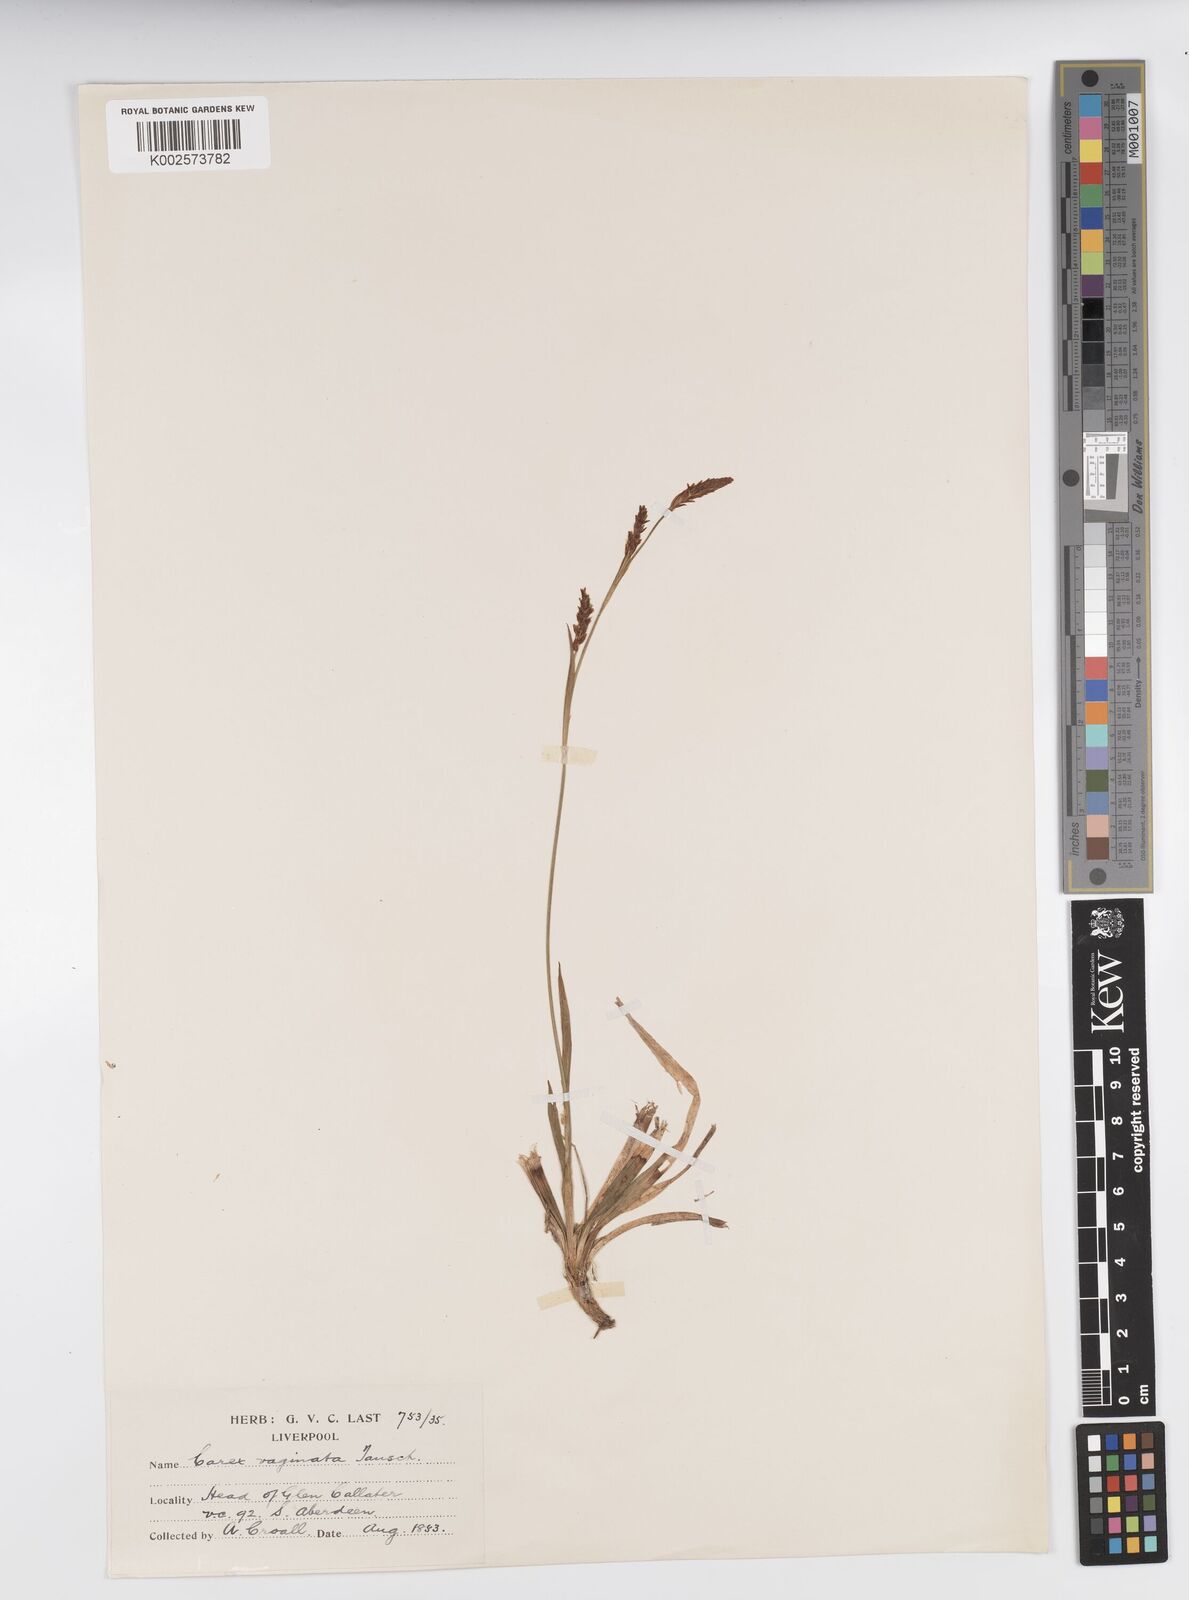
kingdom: Plantae
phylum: Tracheophyta
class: Liliopsida
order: Poales
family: Cyperaceae
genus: Carex
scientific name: Carex vaginata
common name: Sheathed sedge
